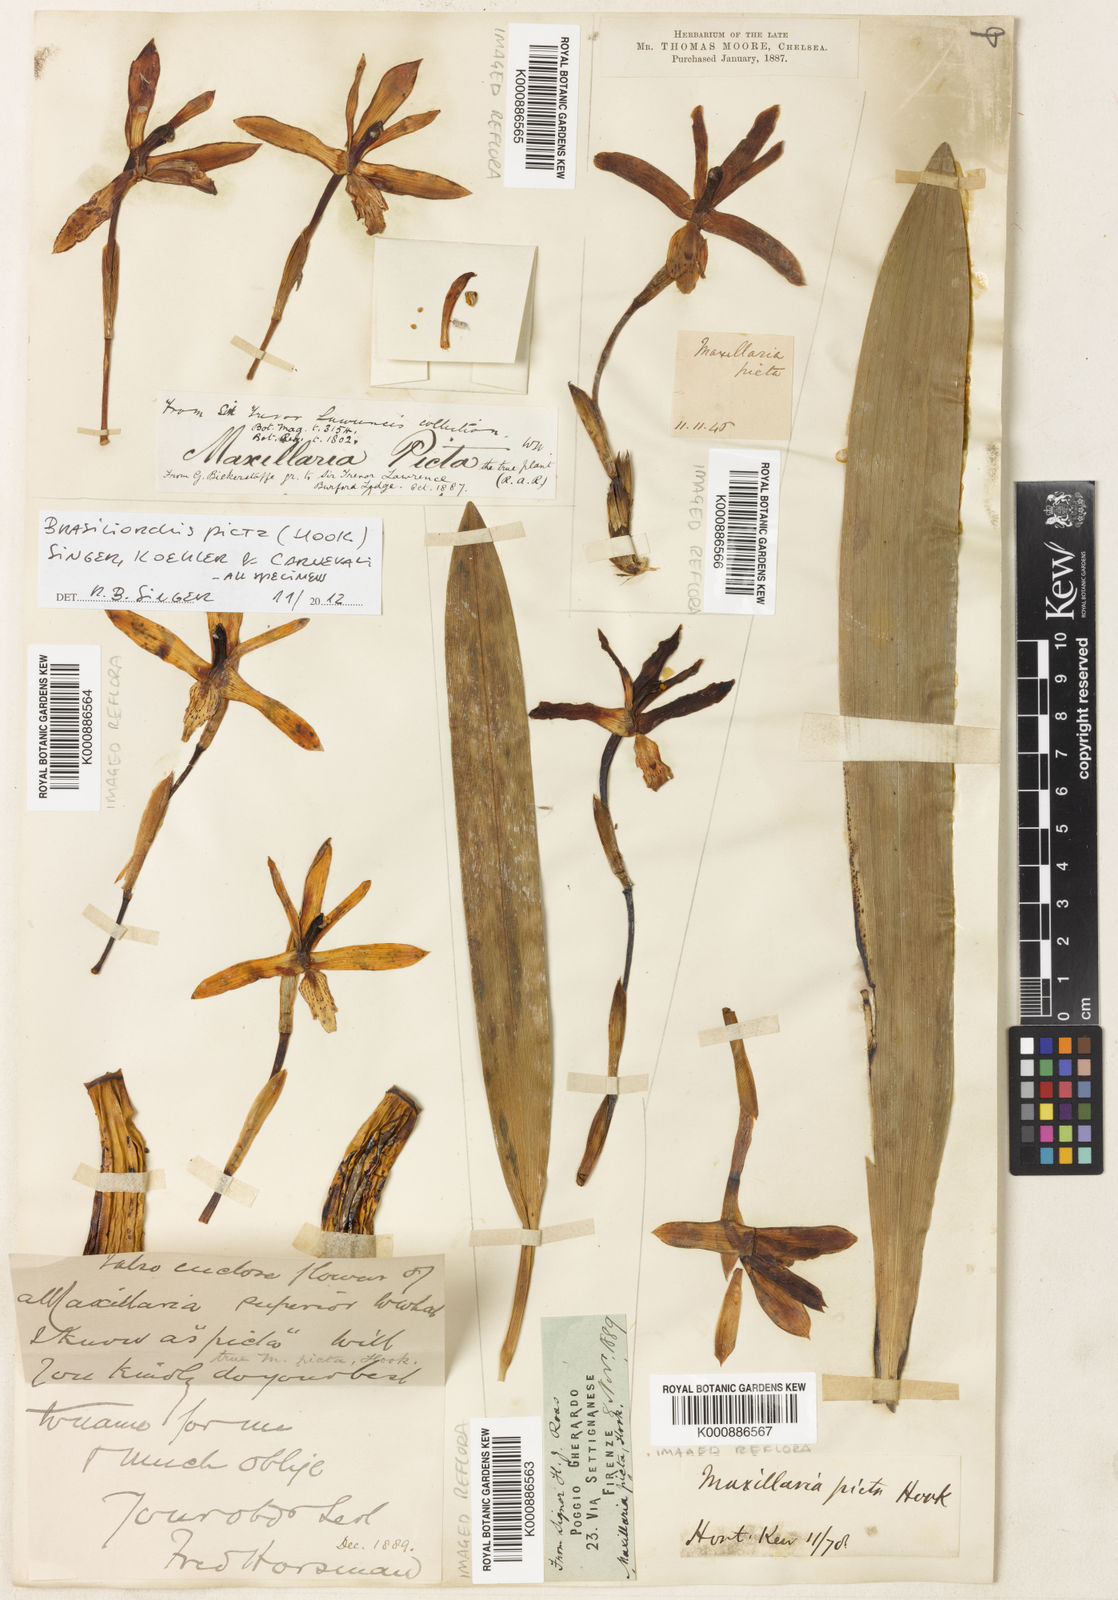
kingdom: Plantae
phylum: Tracheophyta
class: Liliopsida
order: Asparagales
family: Orchidaceae
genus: Maxillaria
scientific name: Maxillaria
